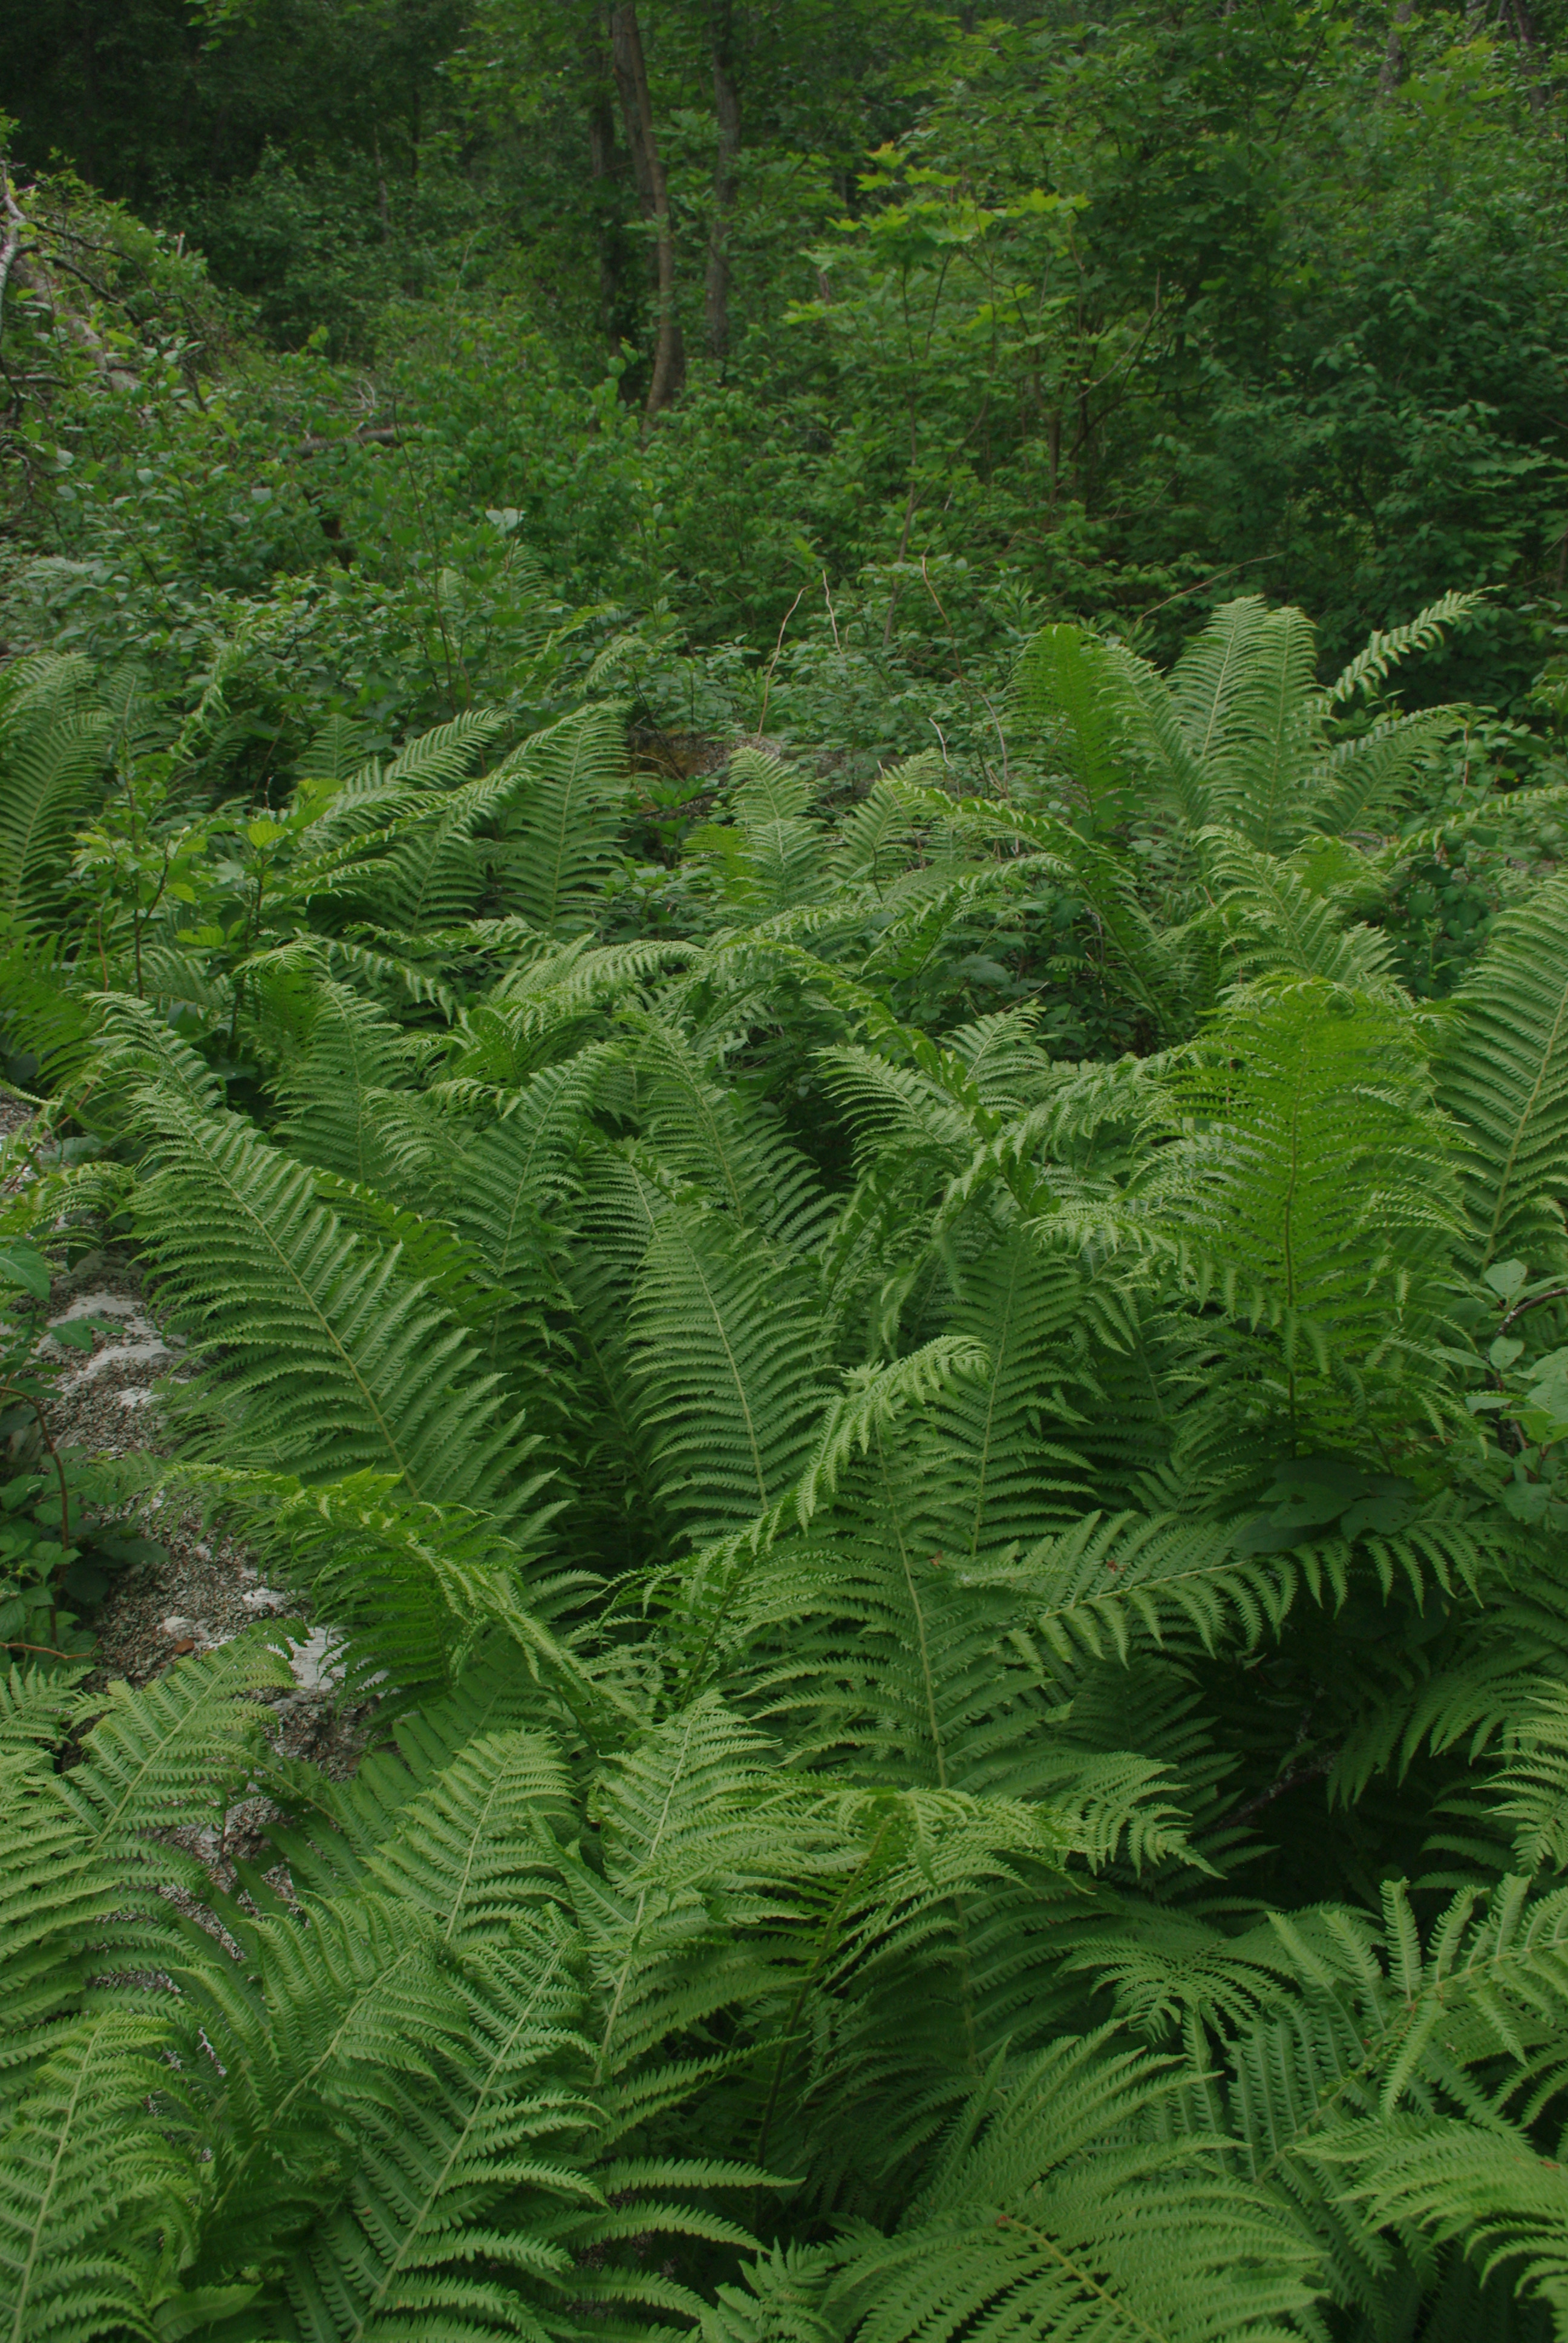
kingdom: Plantae
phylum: Tracheophyta
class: Polypodiopsida
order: Polypodiales
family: Onocleaceae
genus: Matteuccia
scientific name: Matteuccia struthiopteris
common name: Ostrich fern
